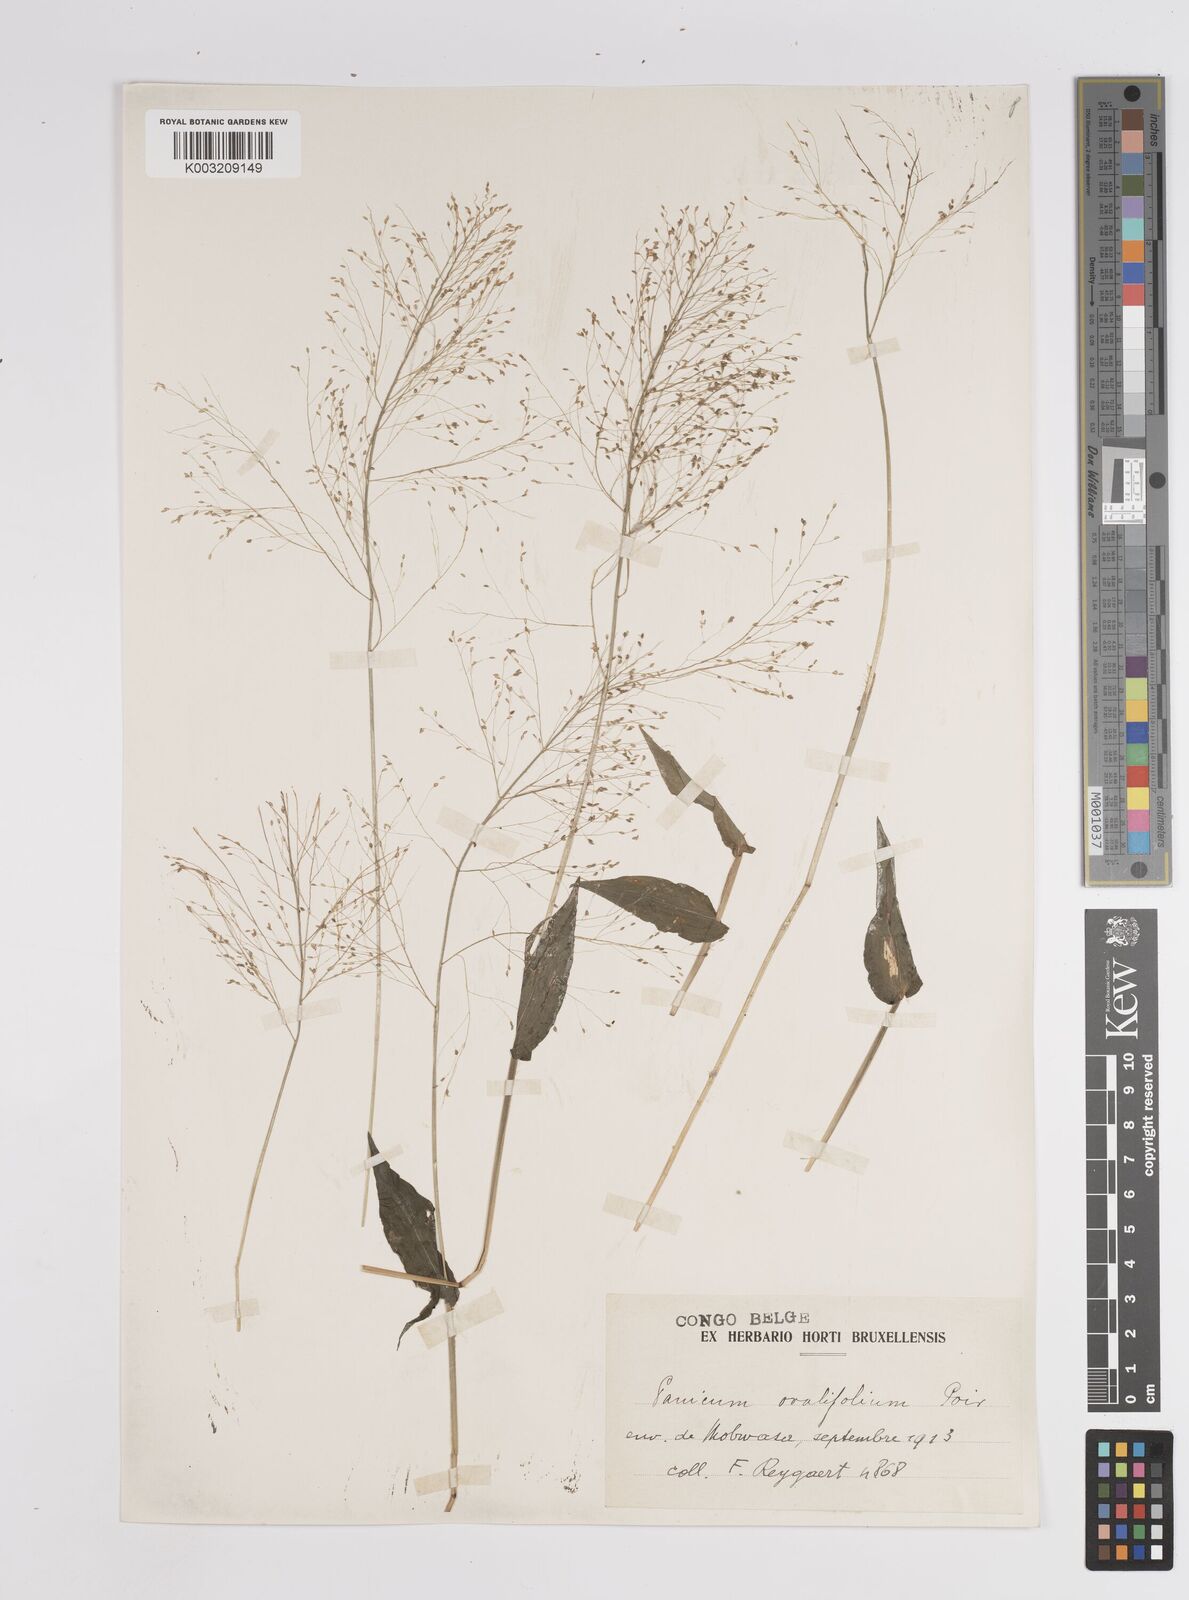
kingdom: Plantae
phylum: Tracheophyta
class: Liliopsida
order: Poales
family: Poaceae
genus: Panicum
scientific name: Panicum brevifolium
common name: Shortleaf panic grass
